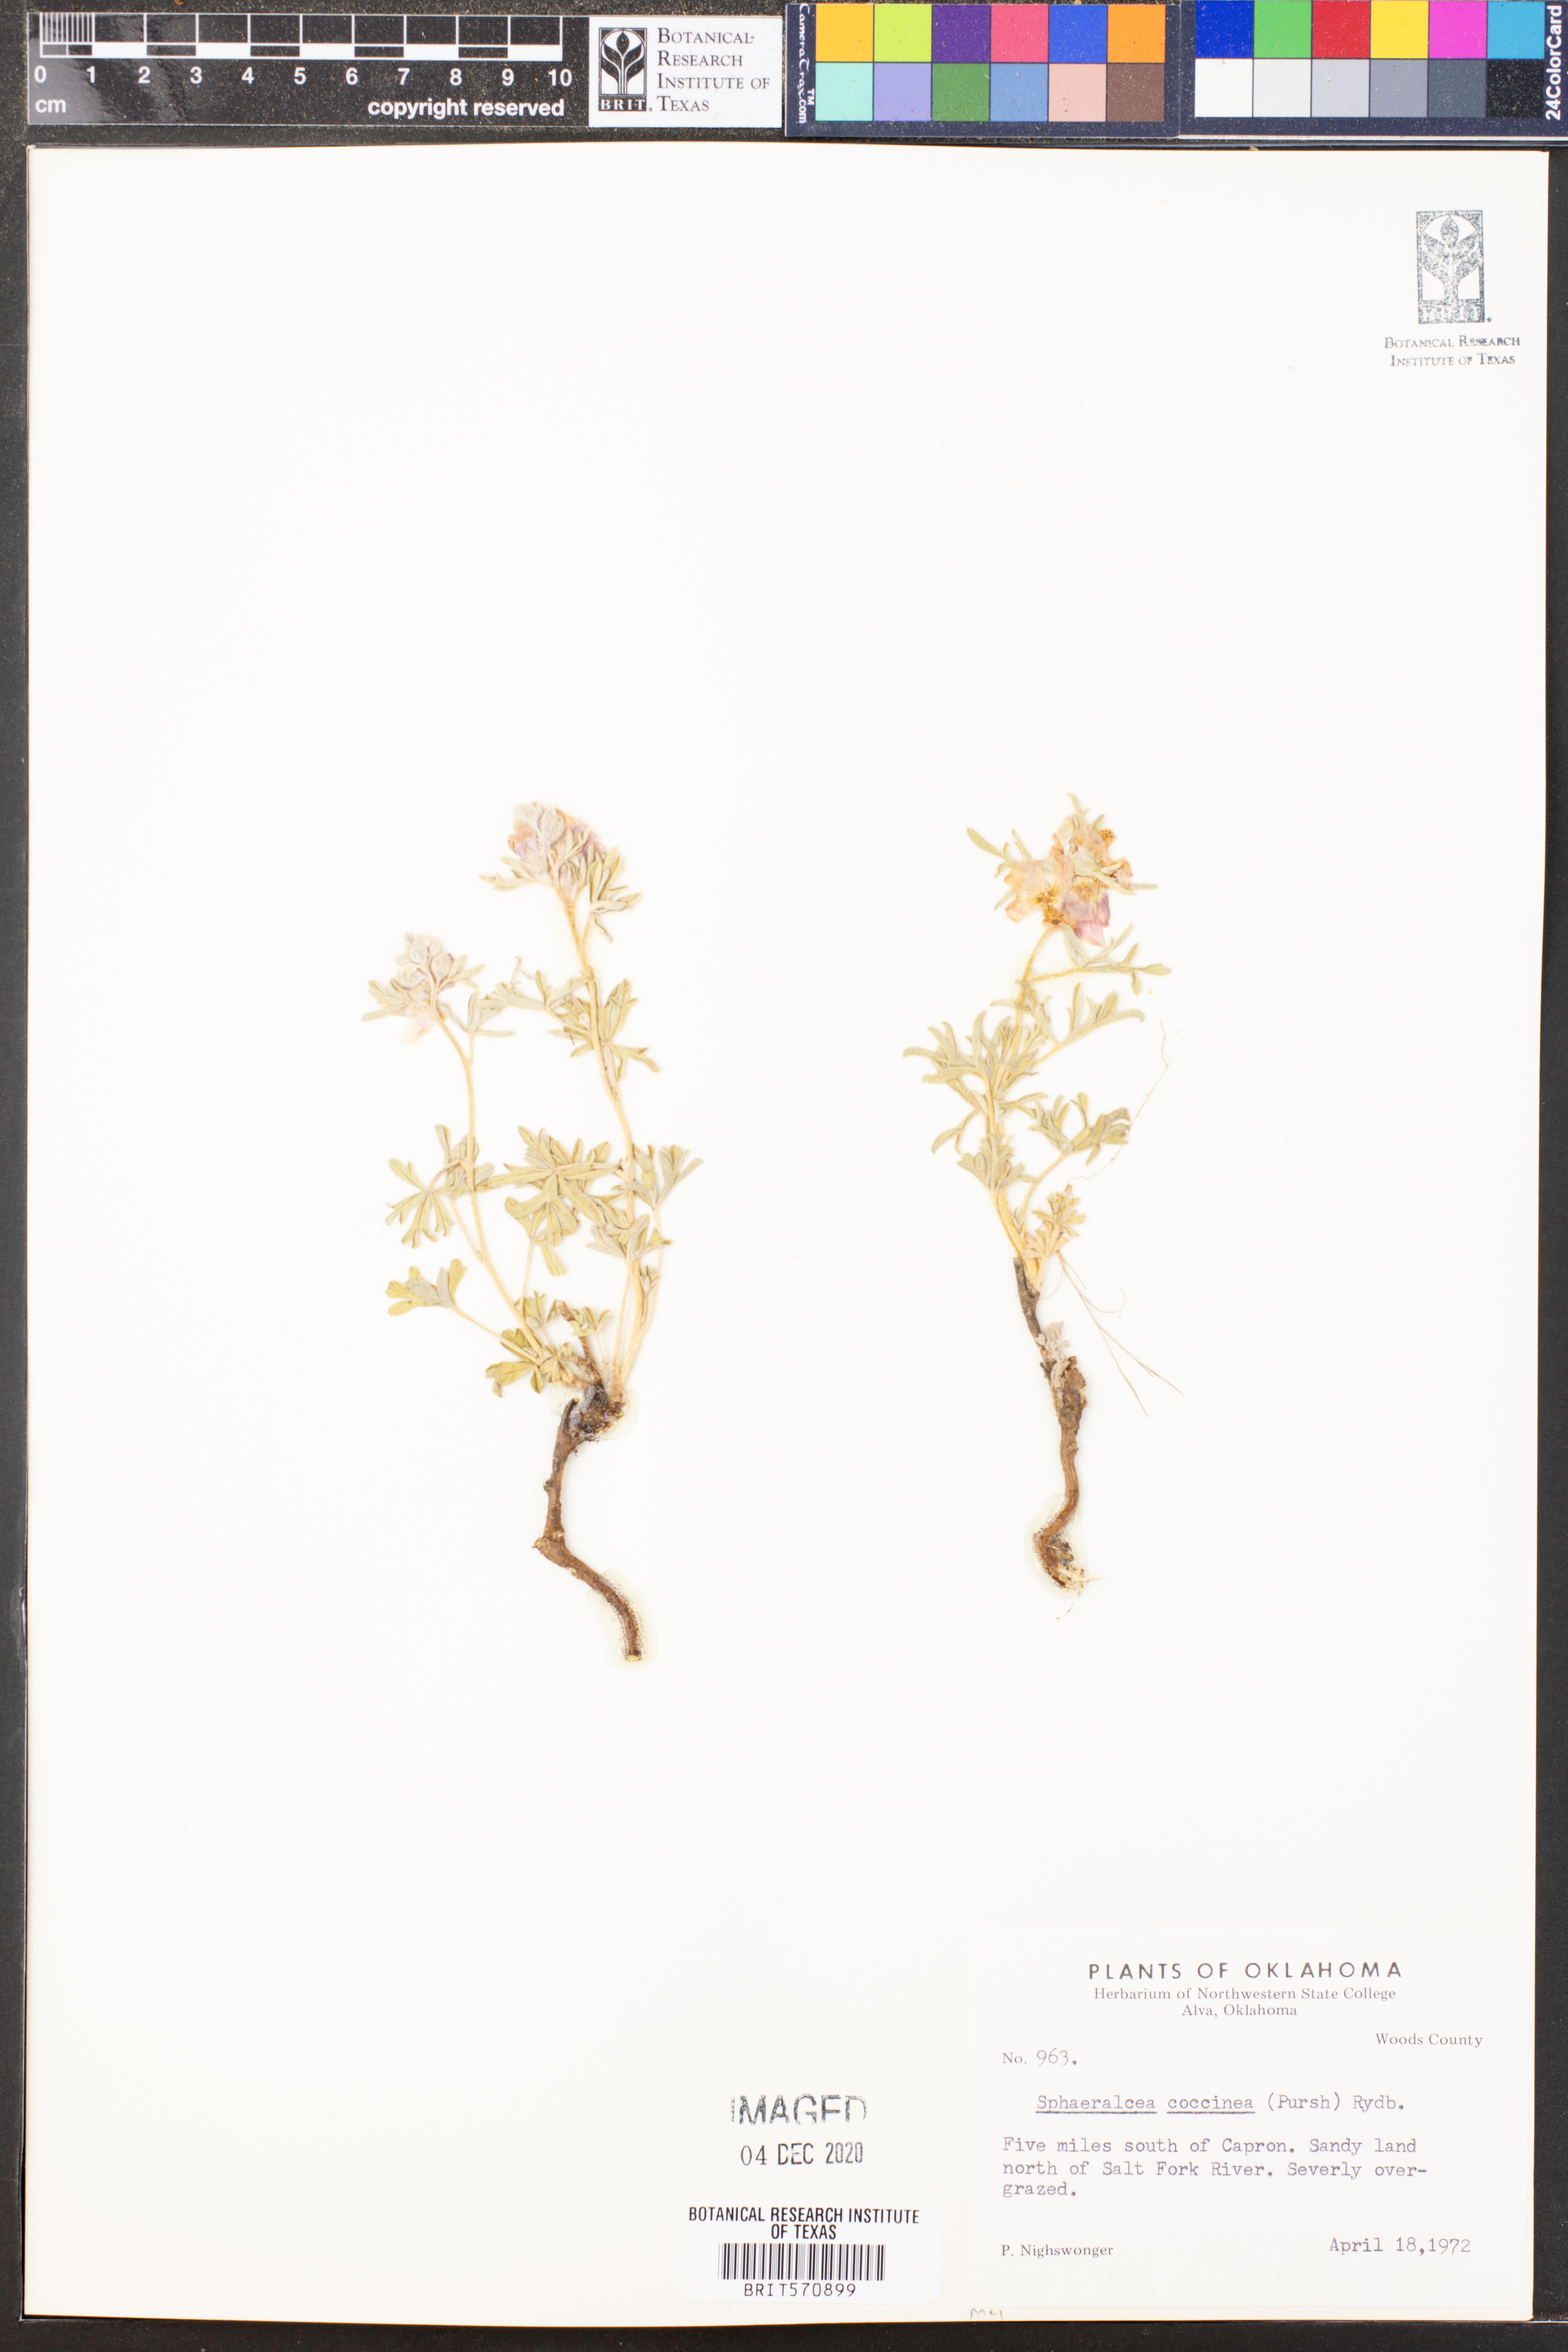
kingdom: Plantae
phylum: Tracheophyta
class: Magnoliopsida
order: Malvales
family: Malvaceae
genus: Sphaeralcea
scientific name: Sphaeralcea coccinea
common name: Moss-rose
